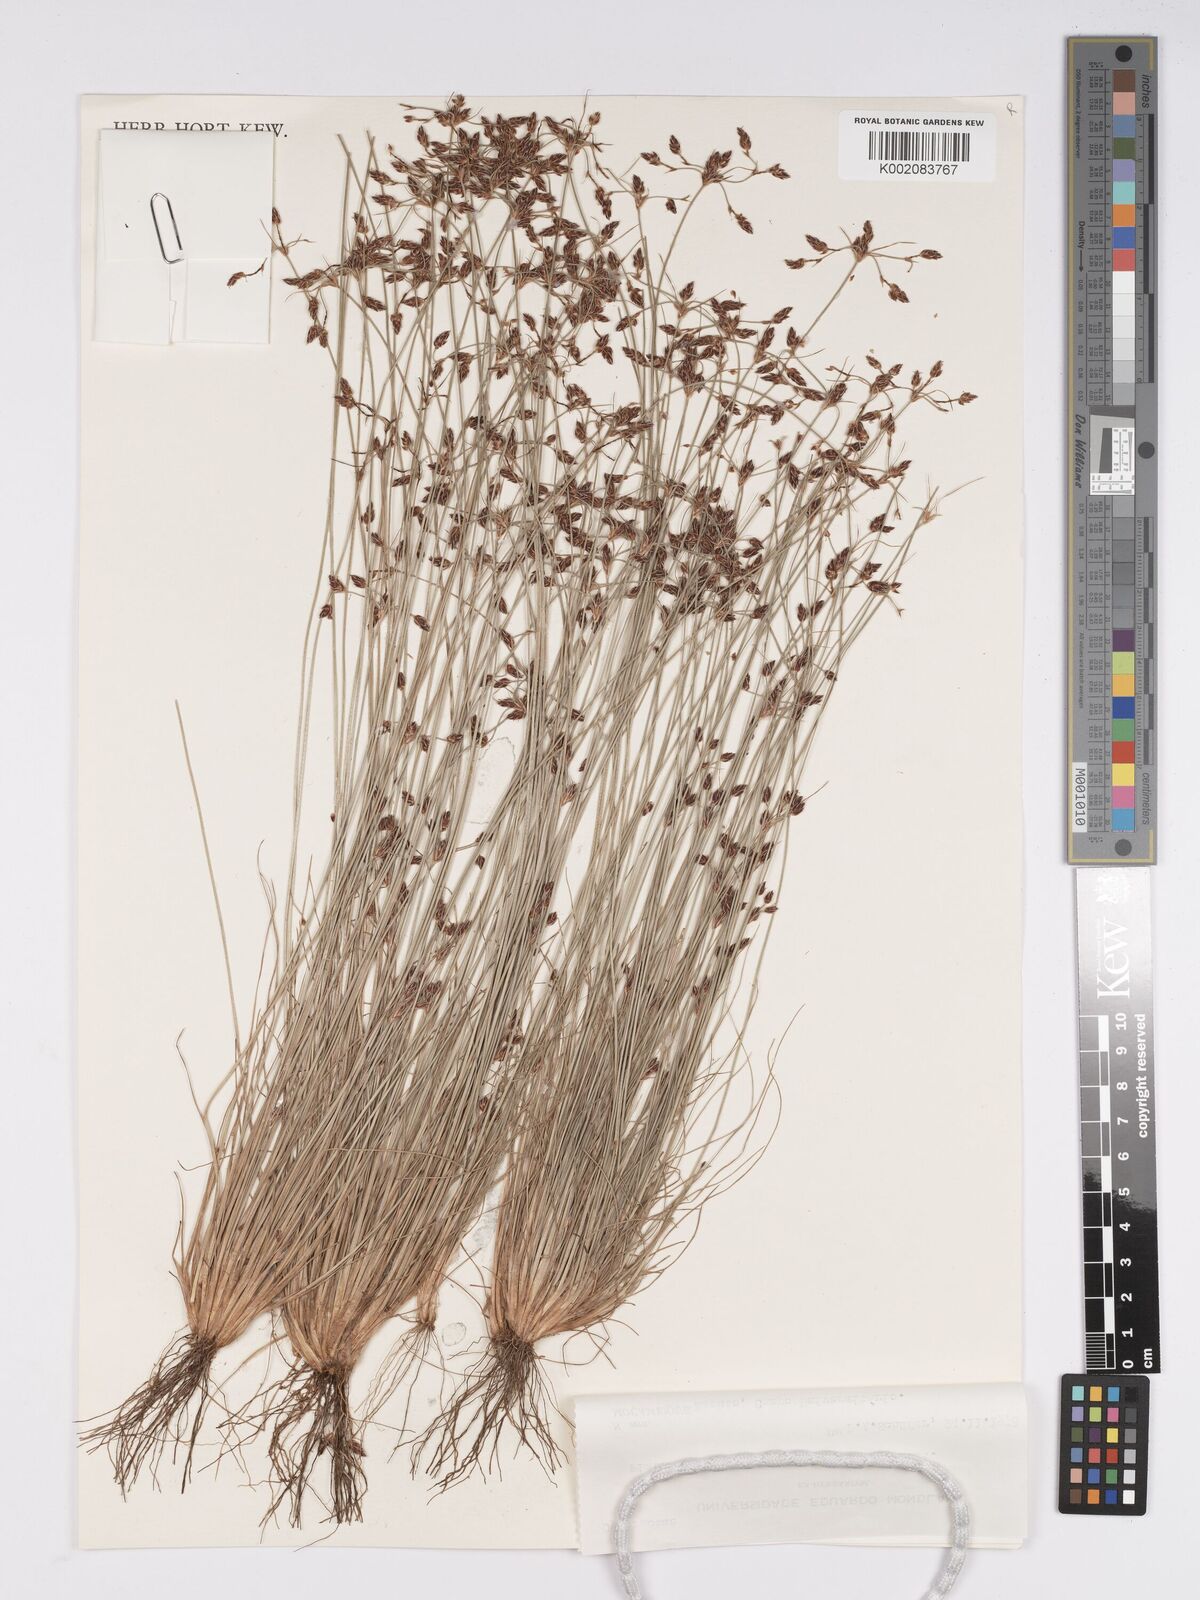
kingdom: Plantae
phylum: Tracheophyta
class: Liliopsida
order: Poales
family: Cyperaceae
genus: Bulbostylis
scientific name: Bulbostylis hispidula
